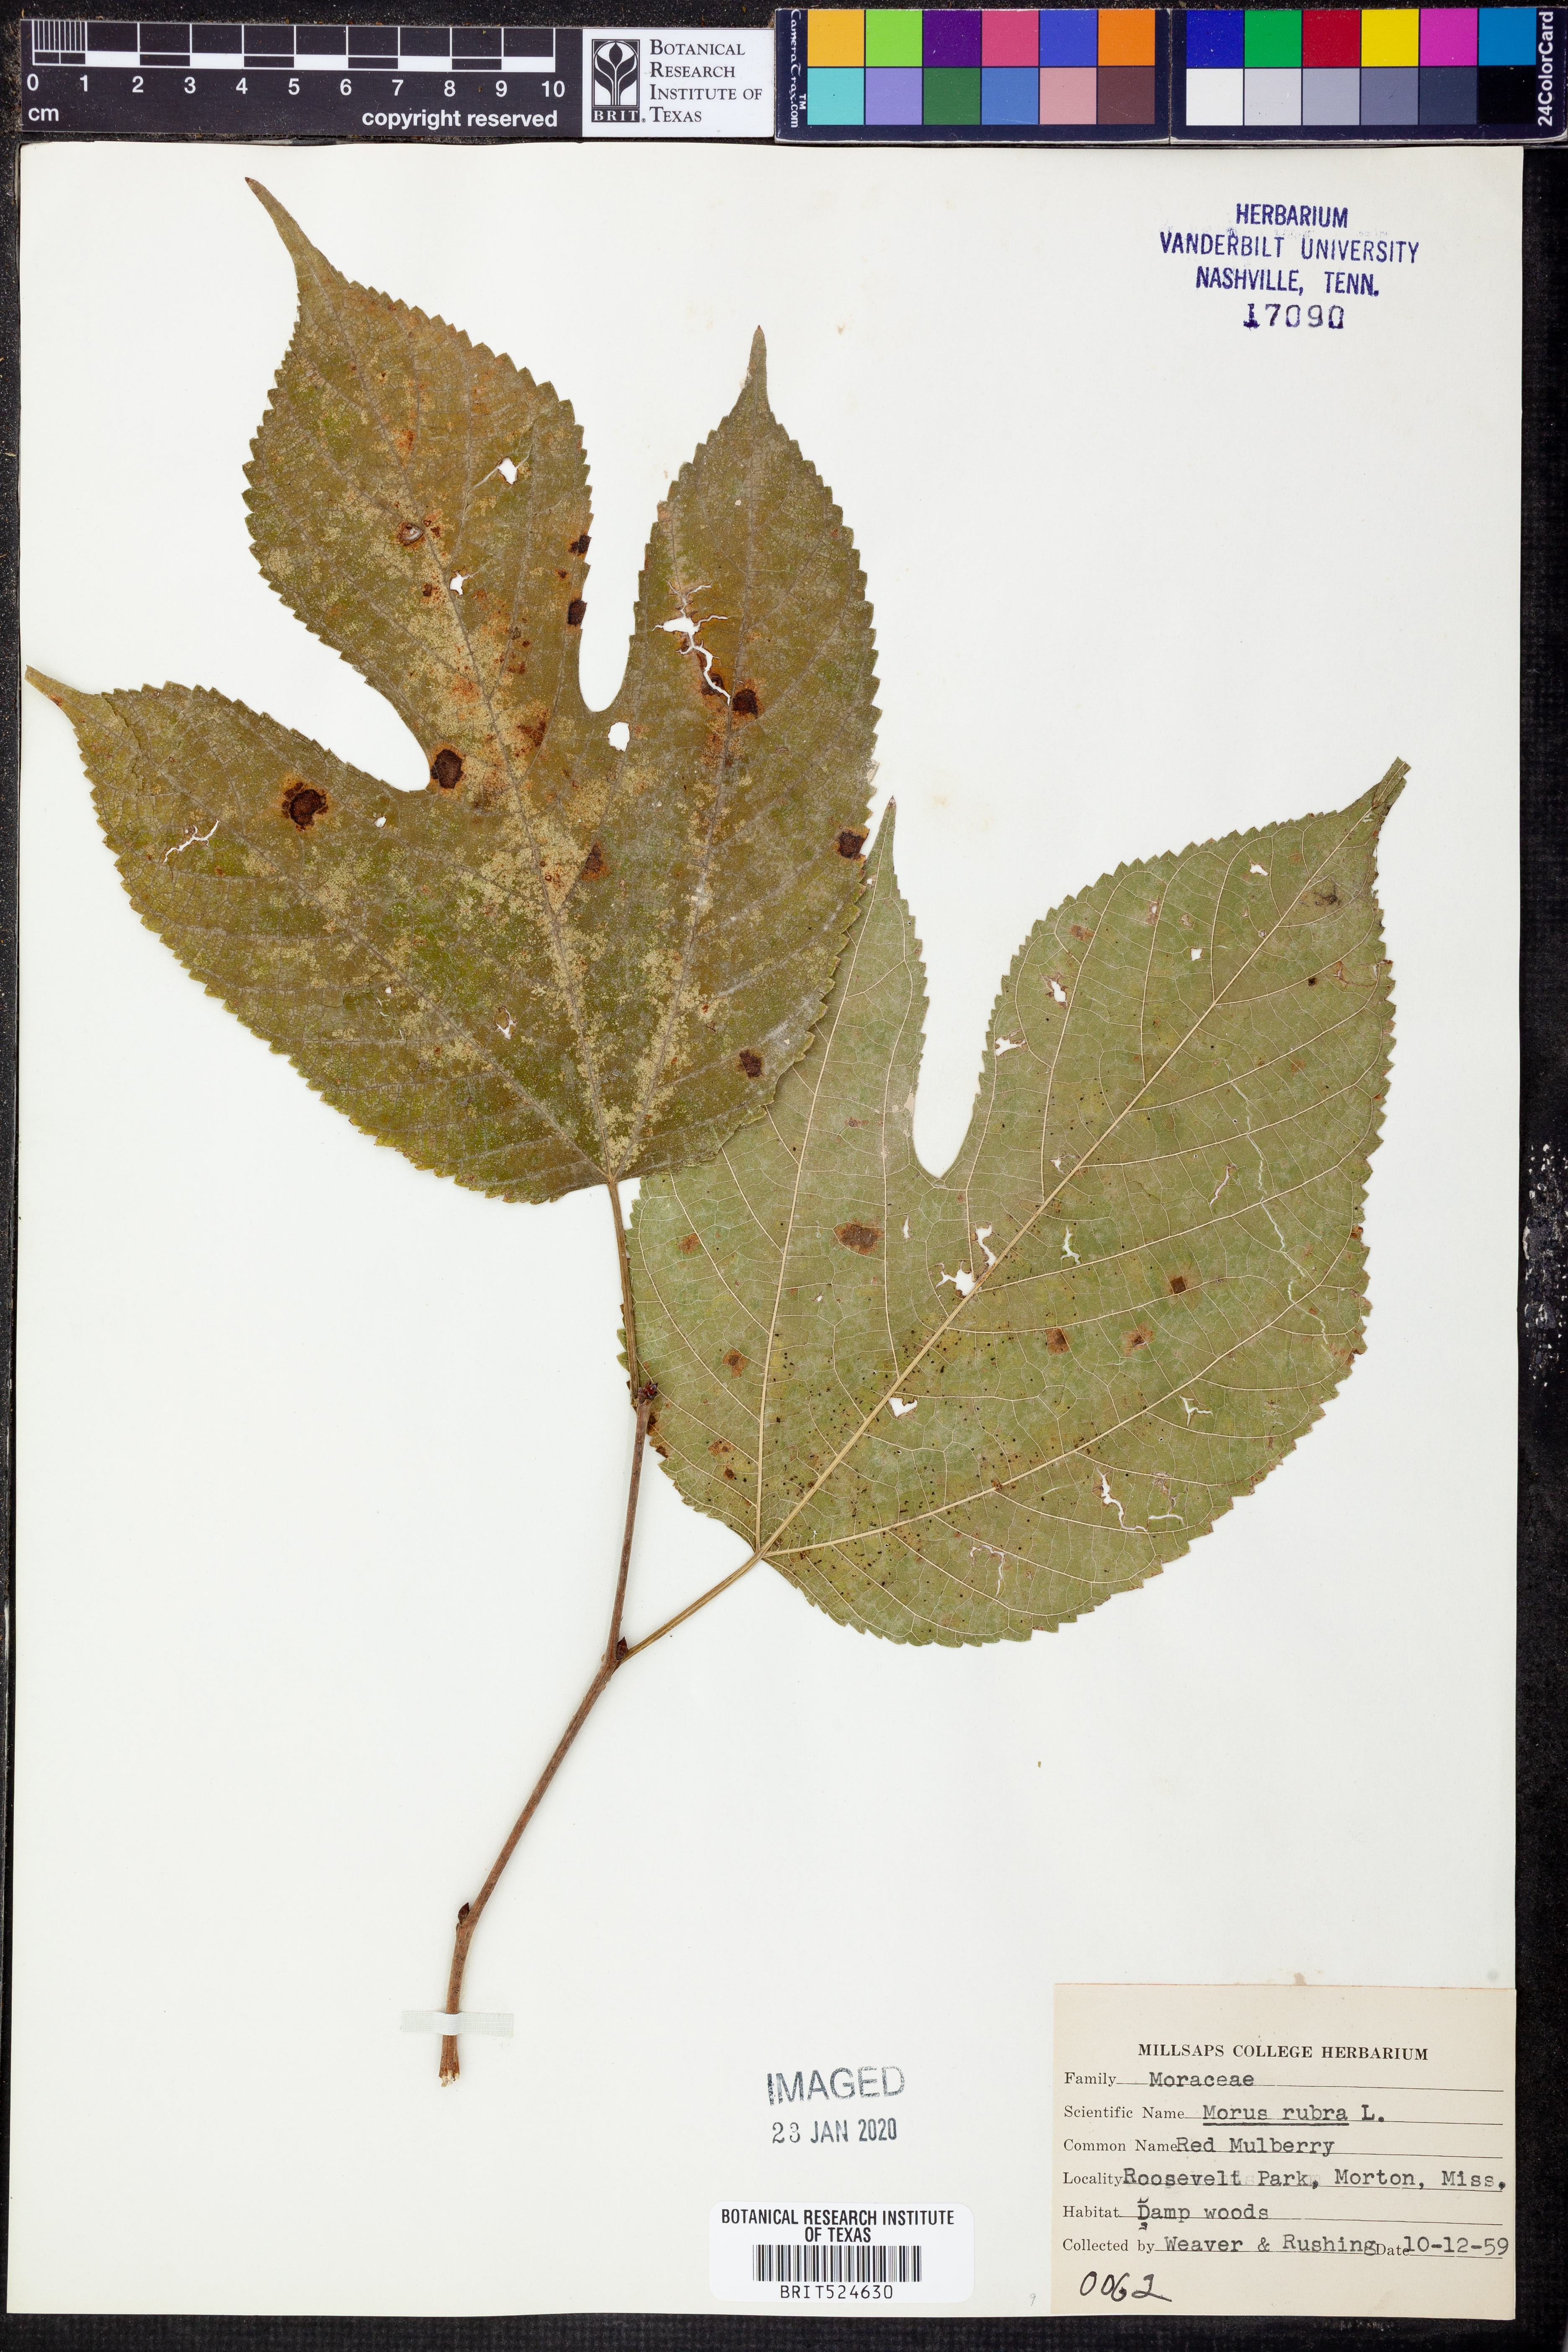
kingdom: Plantae
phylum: Tracheophyta
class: Magnoliopsida
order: Rosales
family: Moraceae
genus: Morus
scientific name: Morus rubra
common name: Red mulberry
